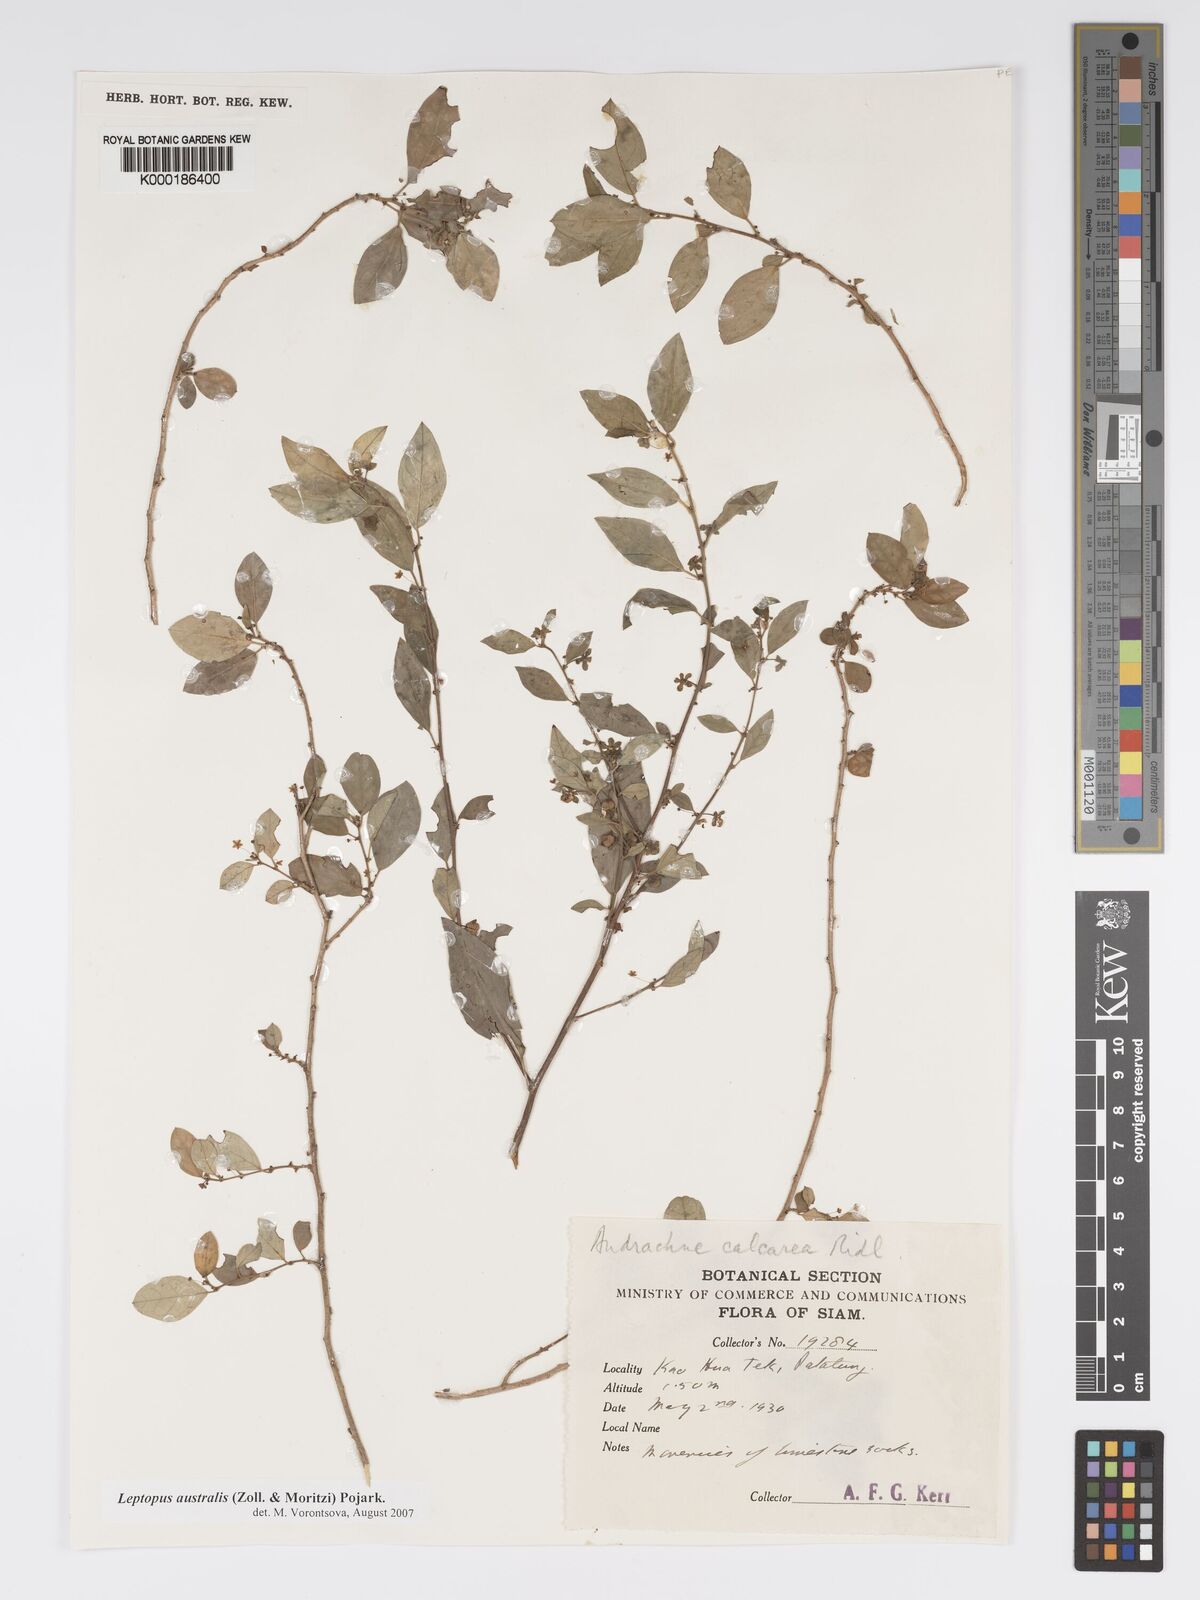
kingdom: Plantae
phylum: Tracheophyta
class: Magnoliopsida
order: Malpighiales
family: Phyllanthaceae
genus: Andrachne
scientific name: Andrachne
